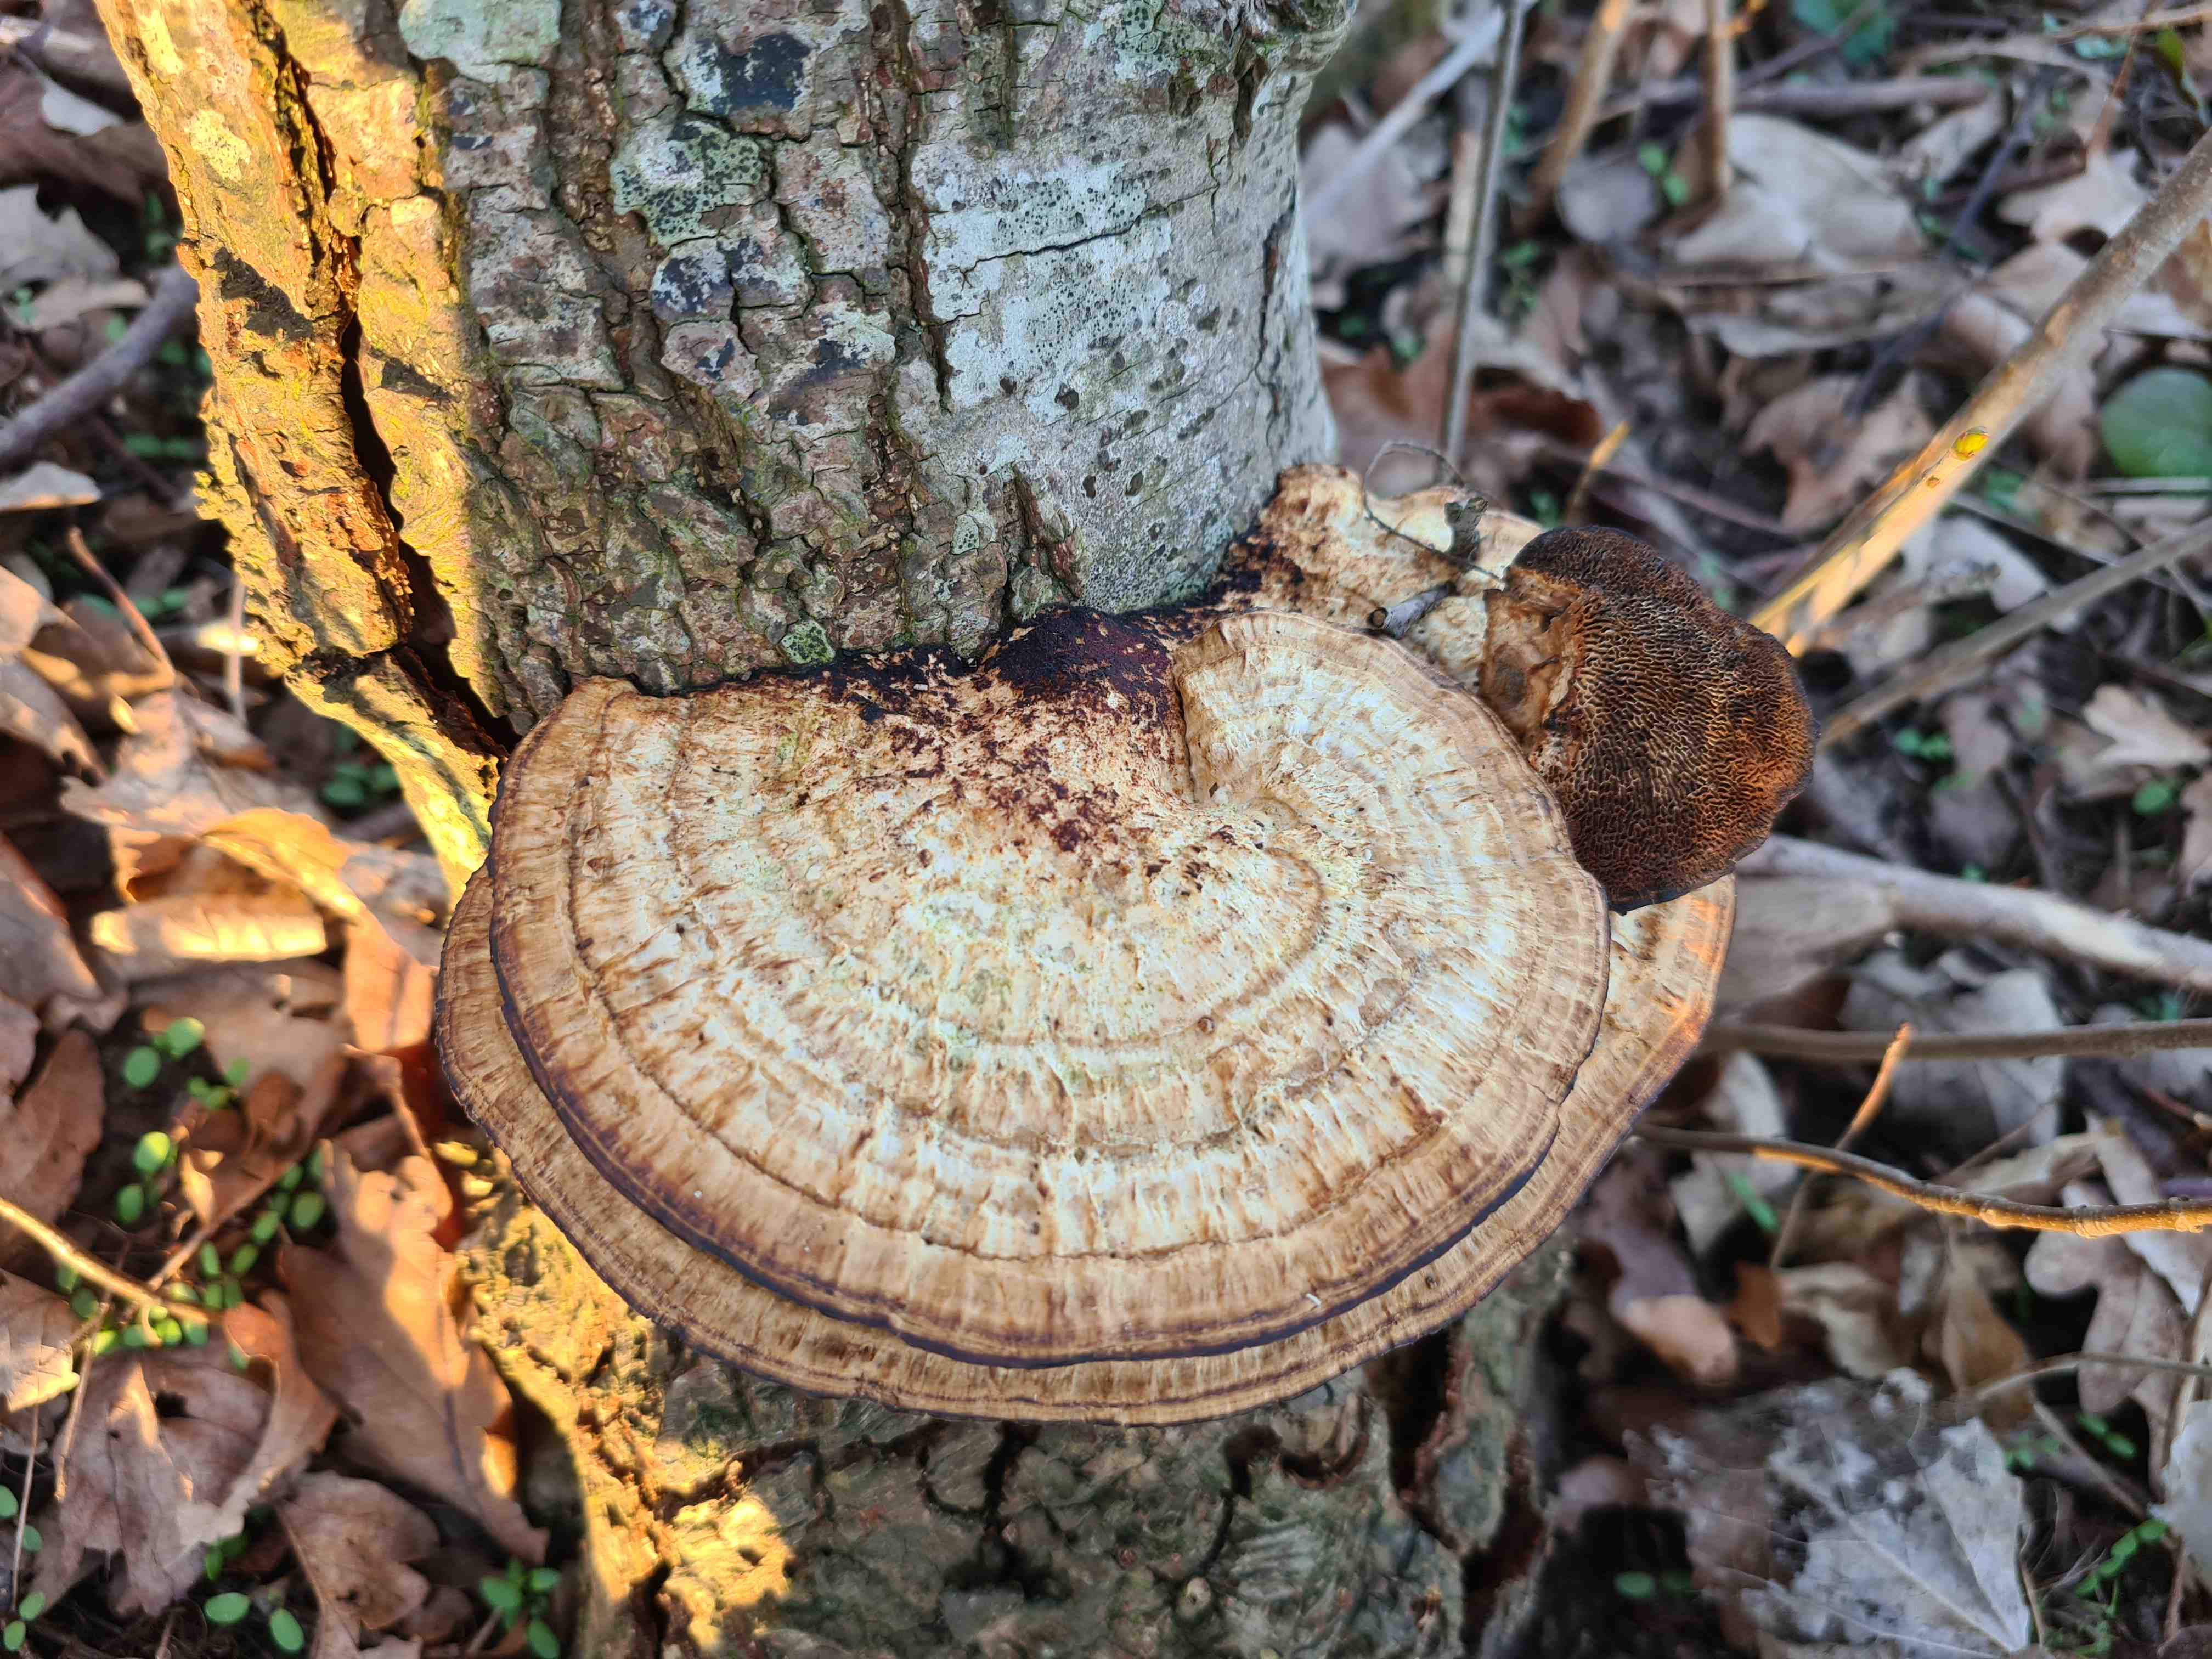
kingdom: Fungi
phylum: Basidiomycota
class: Agaricomycetes
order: Polyporales
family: Polyporaceae
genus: Daedaleopsis
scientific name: Daedaleopsis confragosa
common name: rødmende læderporesvamp
